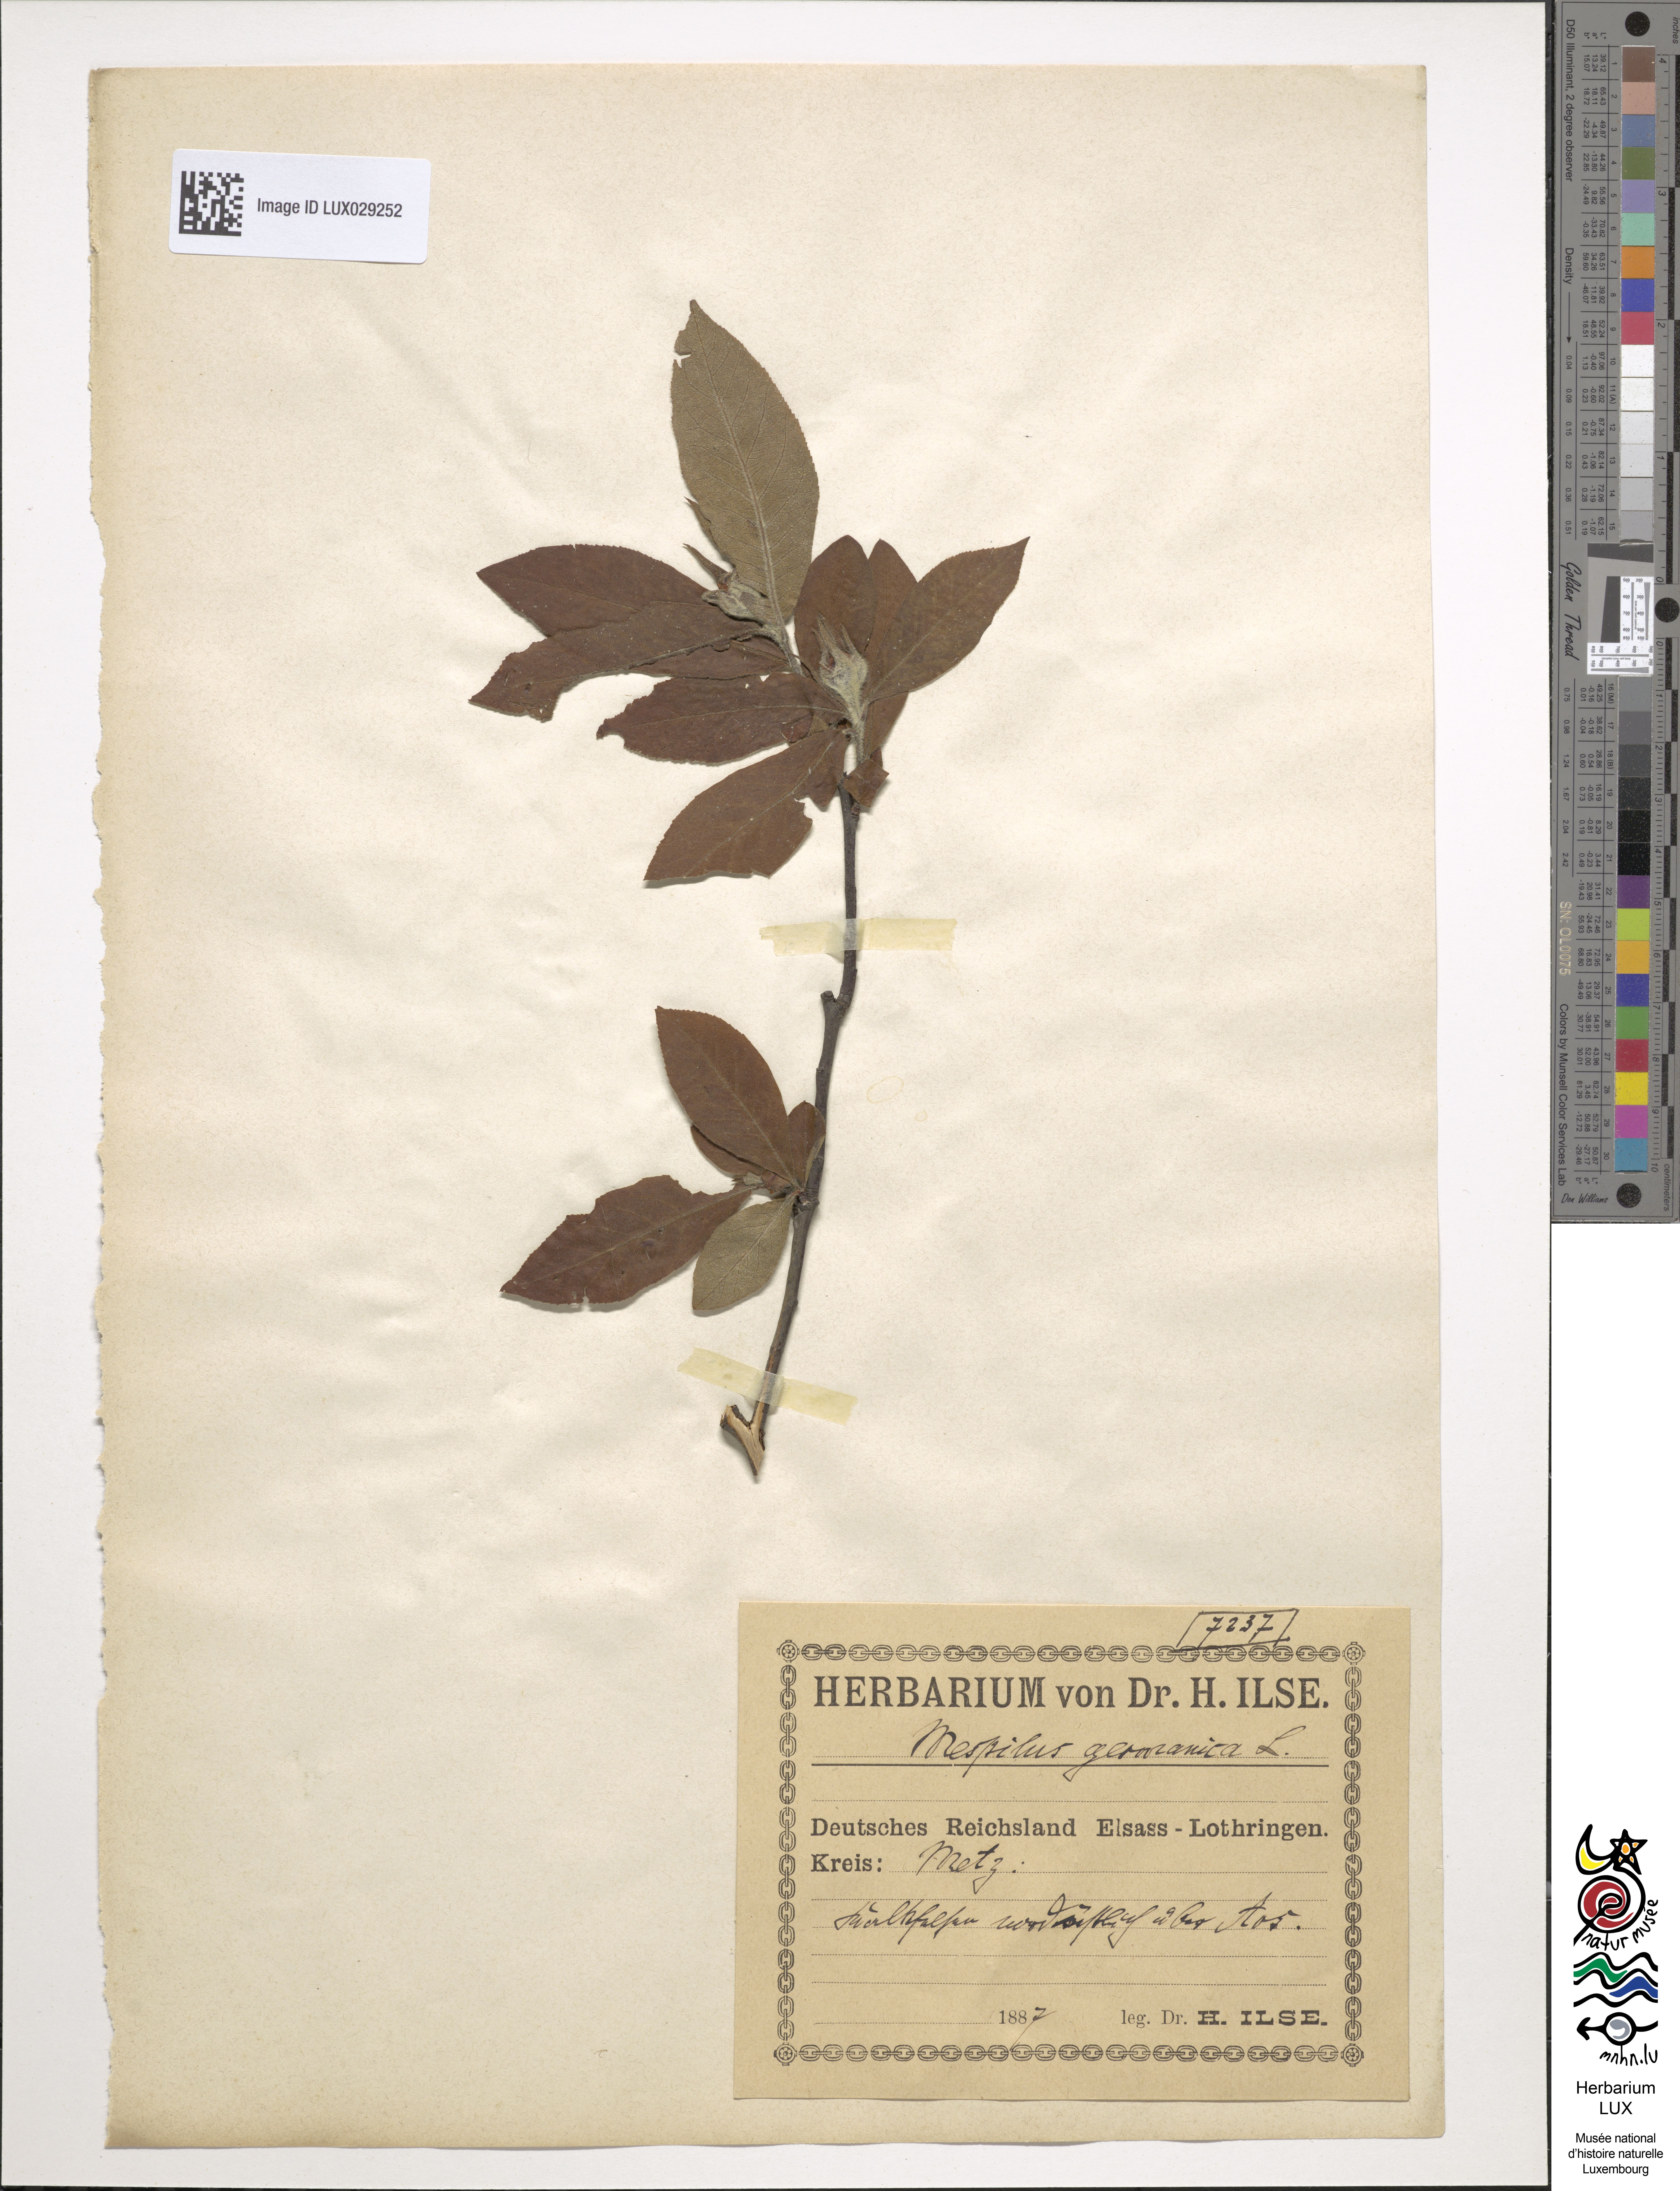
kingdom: Plantae
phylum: Tracheophyta
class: Magnoliopsida
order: Rosales
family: Rosaceae
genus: Mespilus
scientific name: Mespilus germanica
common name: Medlar
